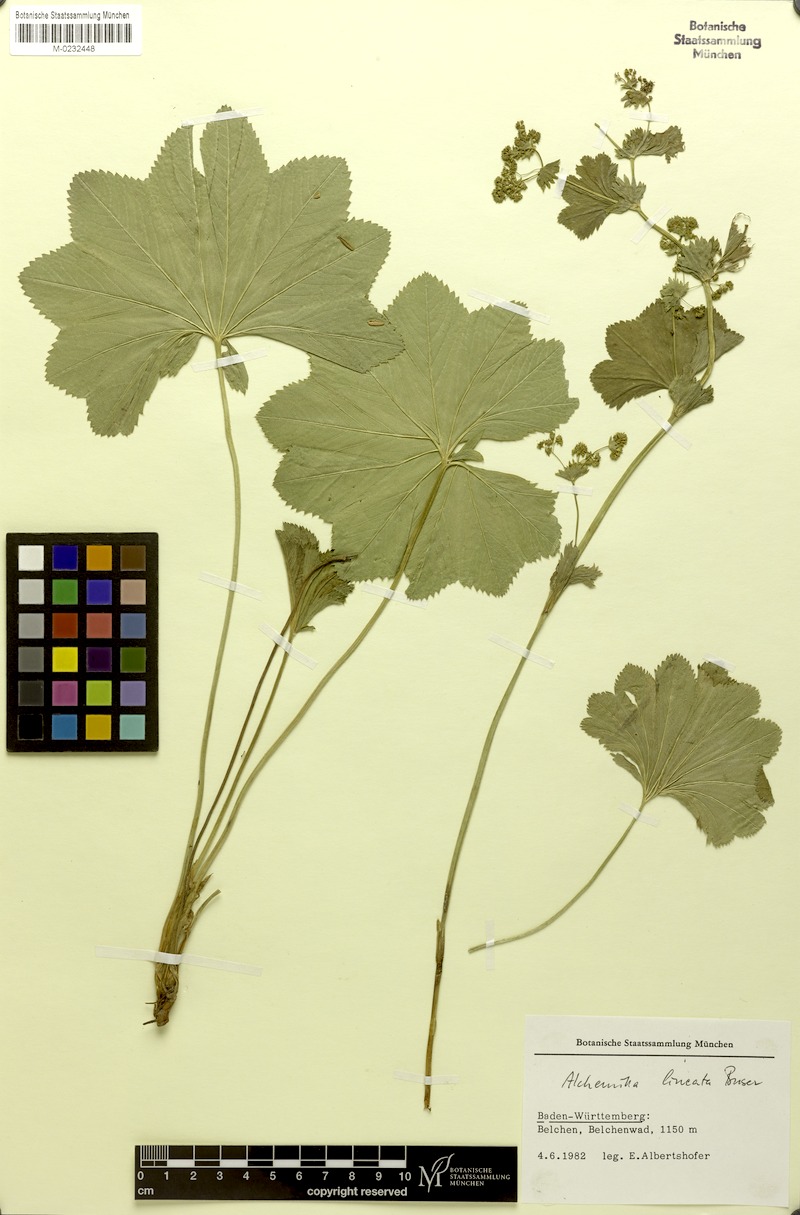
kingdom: Plantae
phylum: Tracheophyta
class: Magnoliopsida
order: Rosales
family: Rosaceae
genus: Alchemilla
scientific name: Alchemilla lineata
